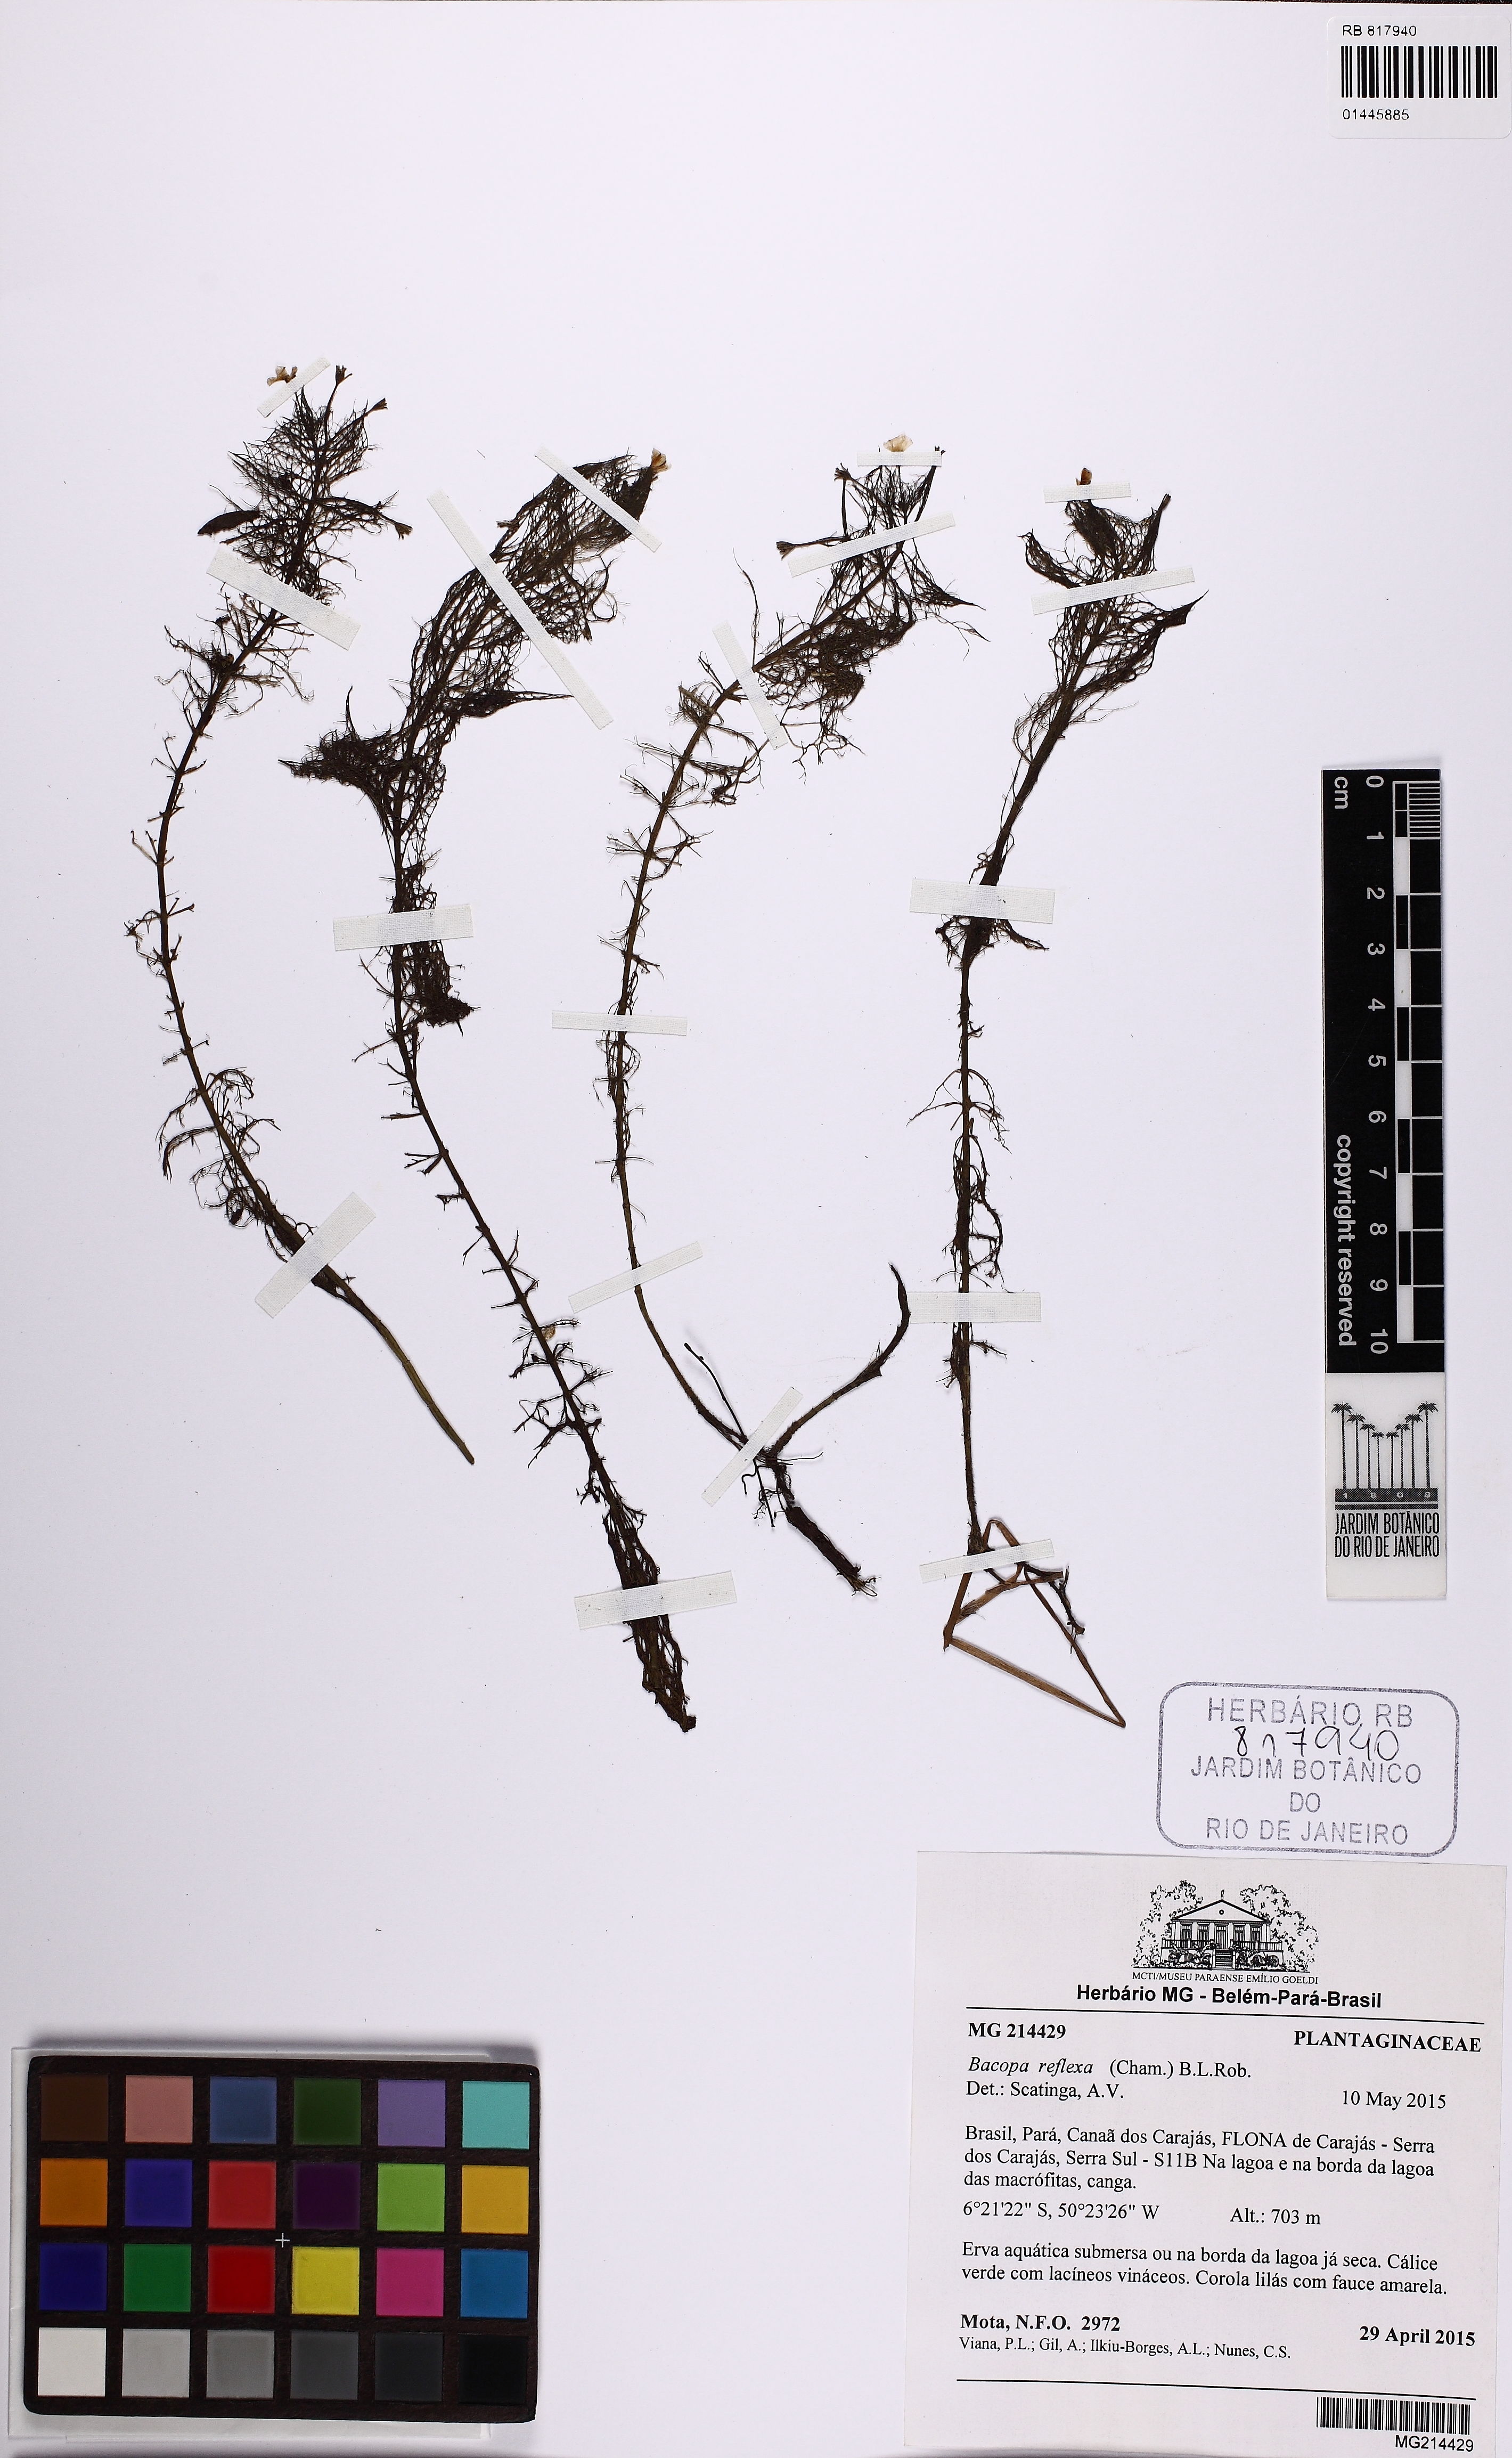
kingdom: Plantae
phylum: Tracheophyta
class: Magnoliopsida
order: Lamiales
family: Plantaginaceae
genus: Bacopa
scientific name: Bacopa reflexa
